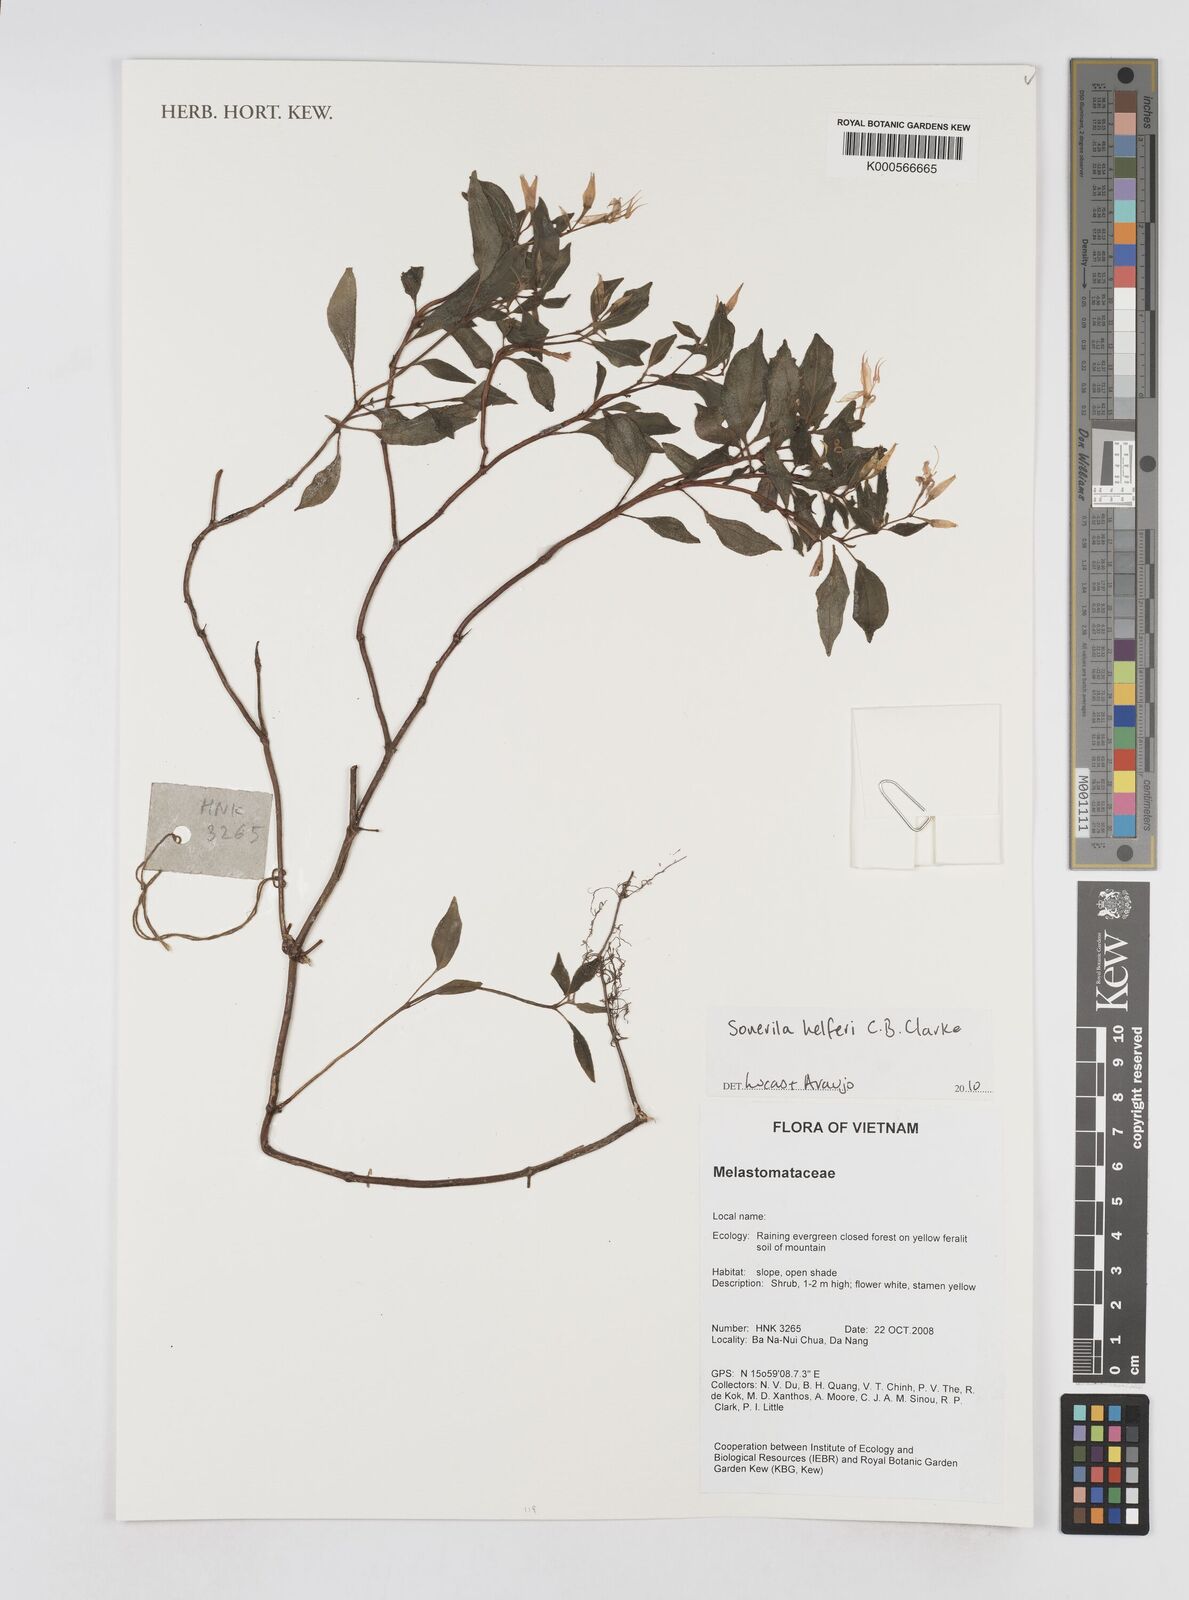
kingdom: Plantae
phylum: Tracheophyta
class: Magnoliopsida
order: Myrtales
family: Melastomataceae
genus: Sonerila
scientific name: Sonerila helferi
